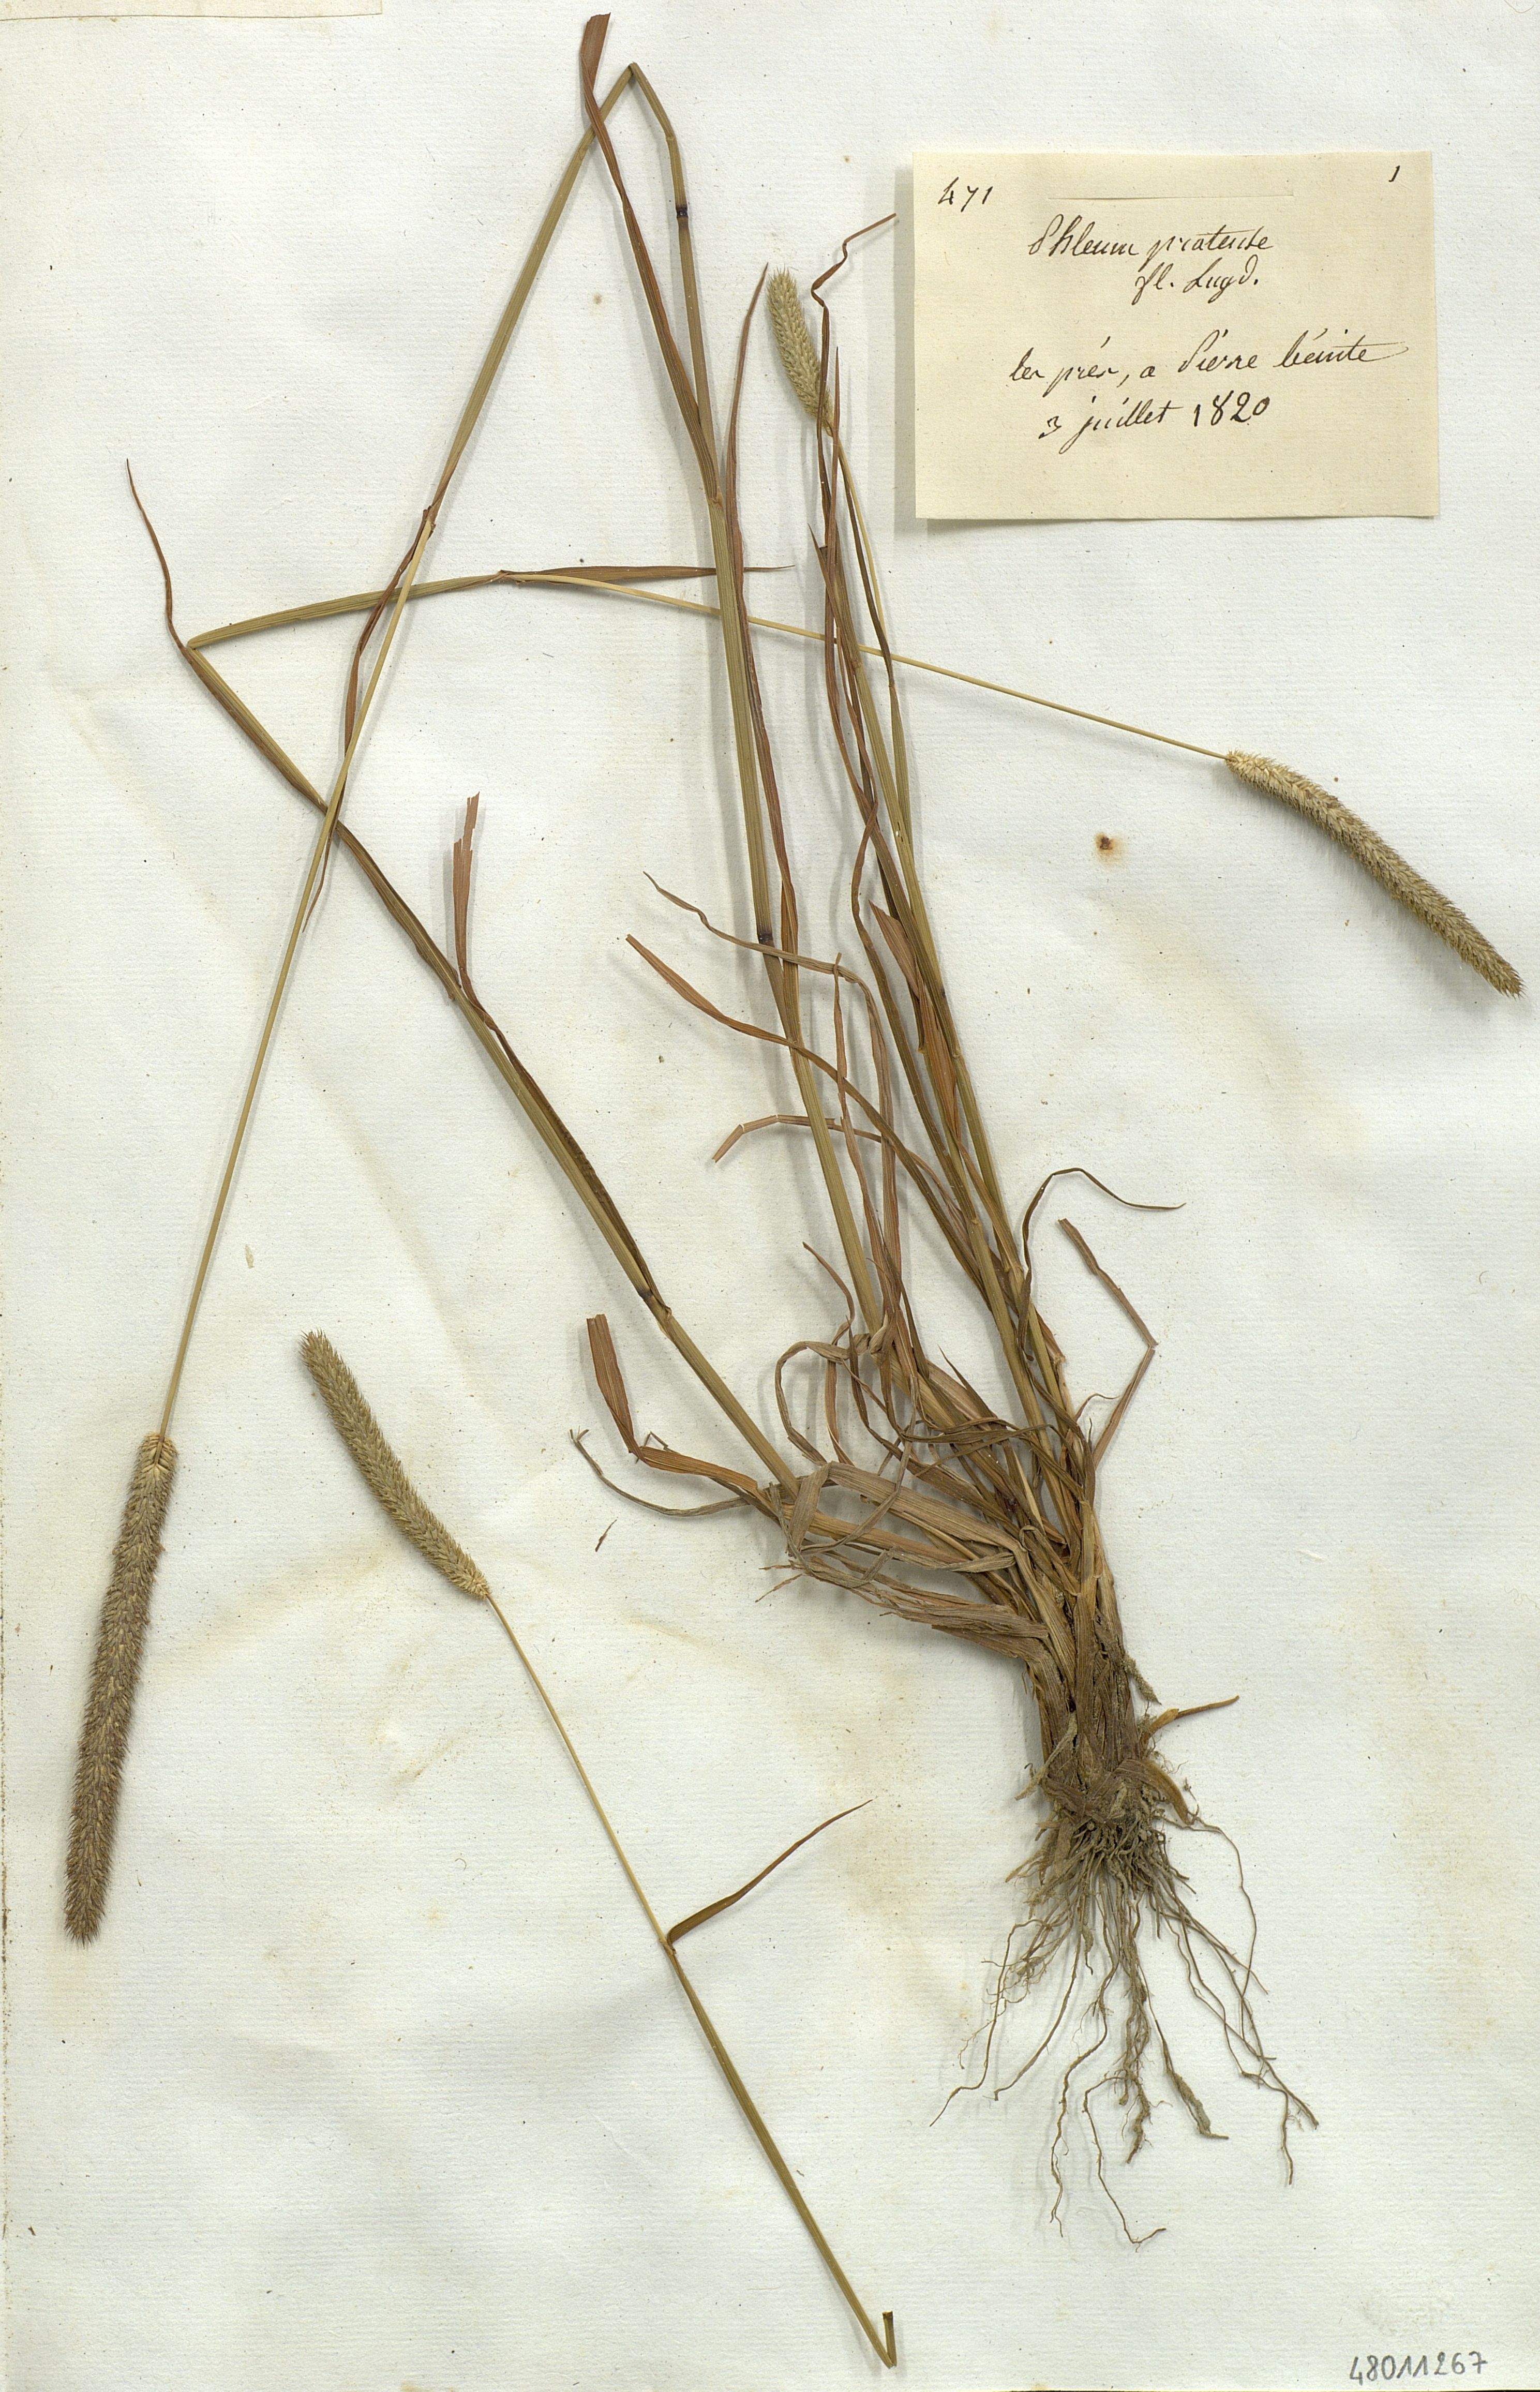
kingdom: Plantae
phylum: Tracheophyta
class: Liliopsida
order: Poales
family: Poaceae
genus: Phleum
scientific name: Phleum pratense
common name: Timothy grass
